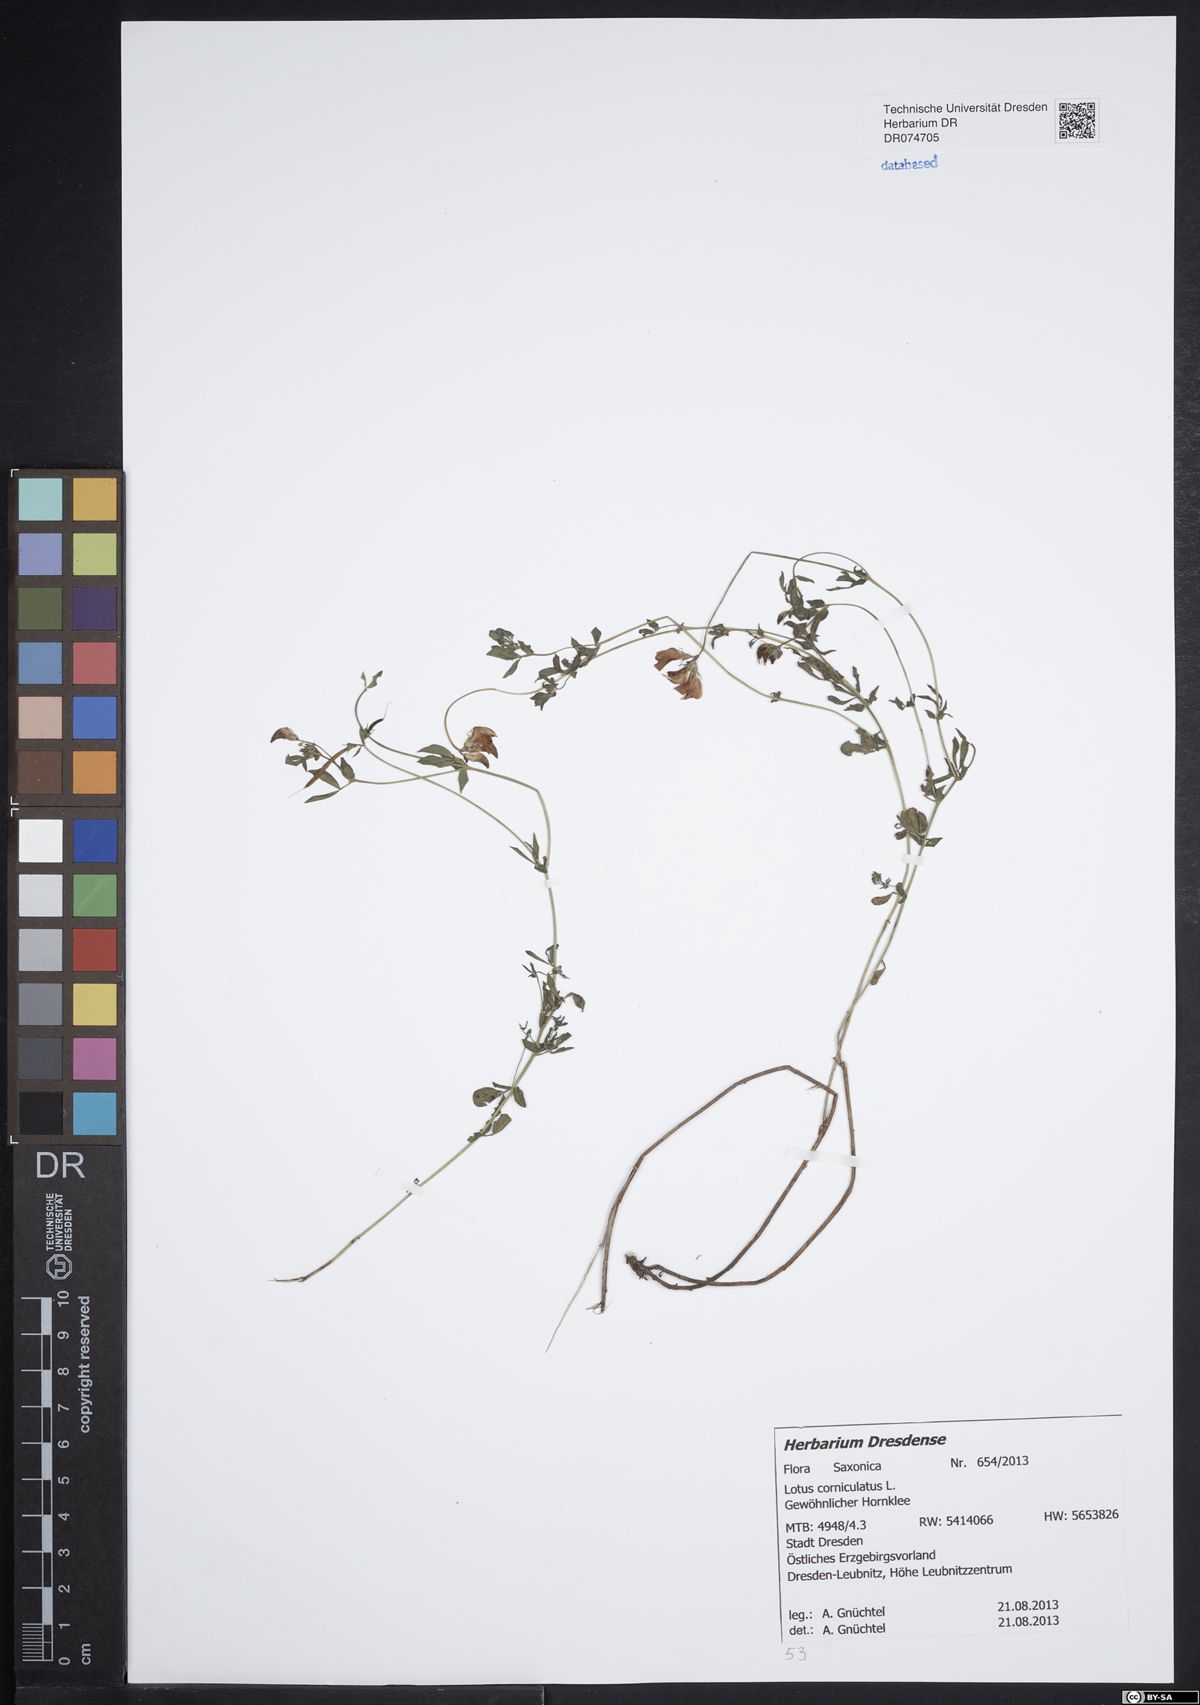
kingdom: Plantae
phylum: Tracheophyta
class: Magnoliopsida
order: Fabales
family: Fabaceae
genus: Lotus
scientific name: Lotus corniculatus
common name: Common bird's-foot-trefoil
